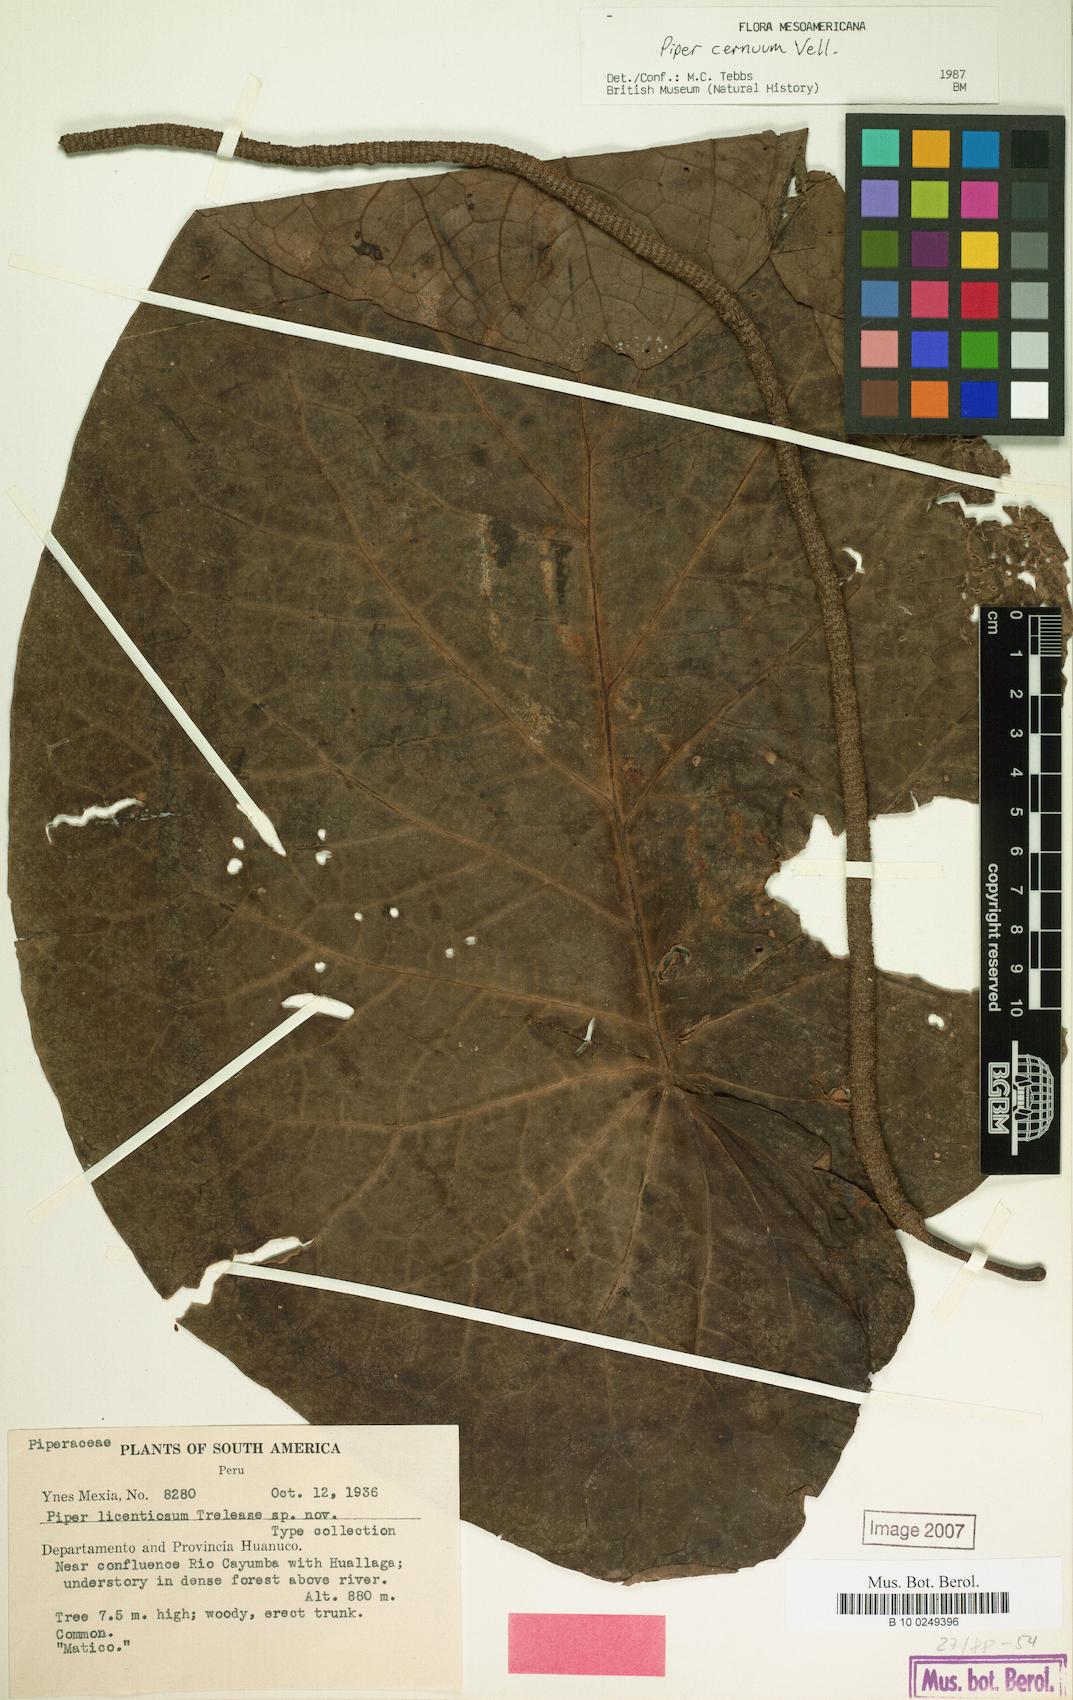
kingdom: Plantae
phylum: Tracheophyta
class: Magnoliopsida
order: Piperales
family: Piperaceae
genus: Piper
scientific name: Piper cernuum
